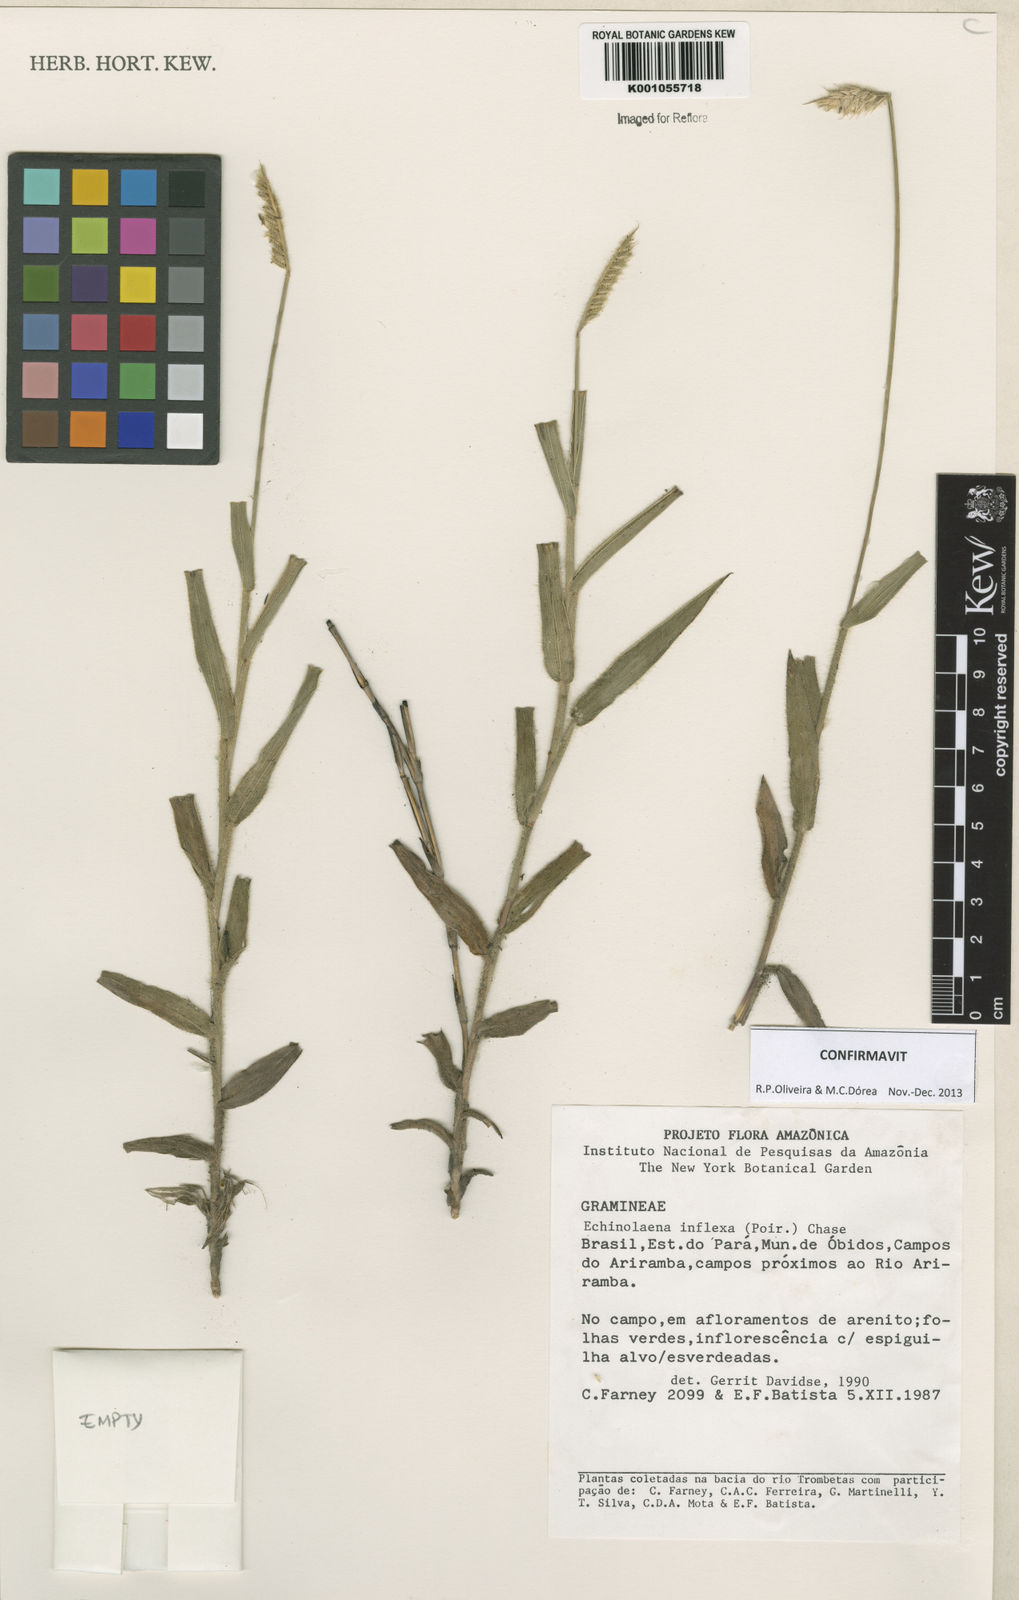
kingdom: Plantae
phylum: Tracheophyta
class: Liliopsida
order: Poales
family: Poaceae
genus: Echinolaena
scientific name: Echinolaena inflexa
